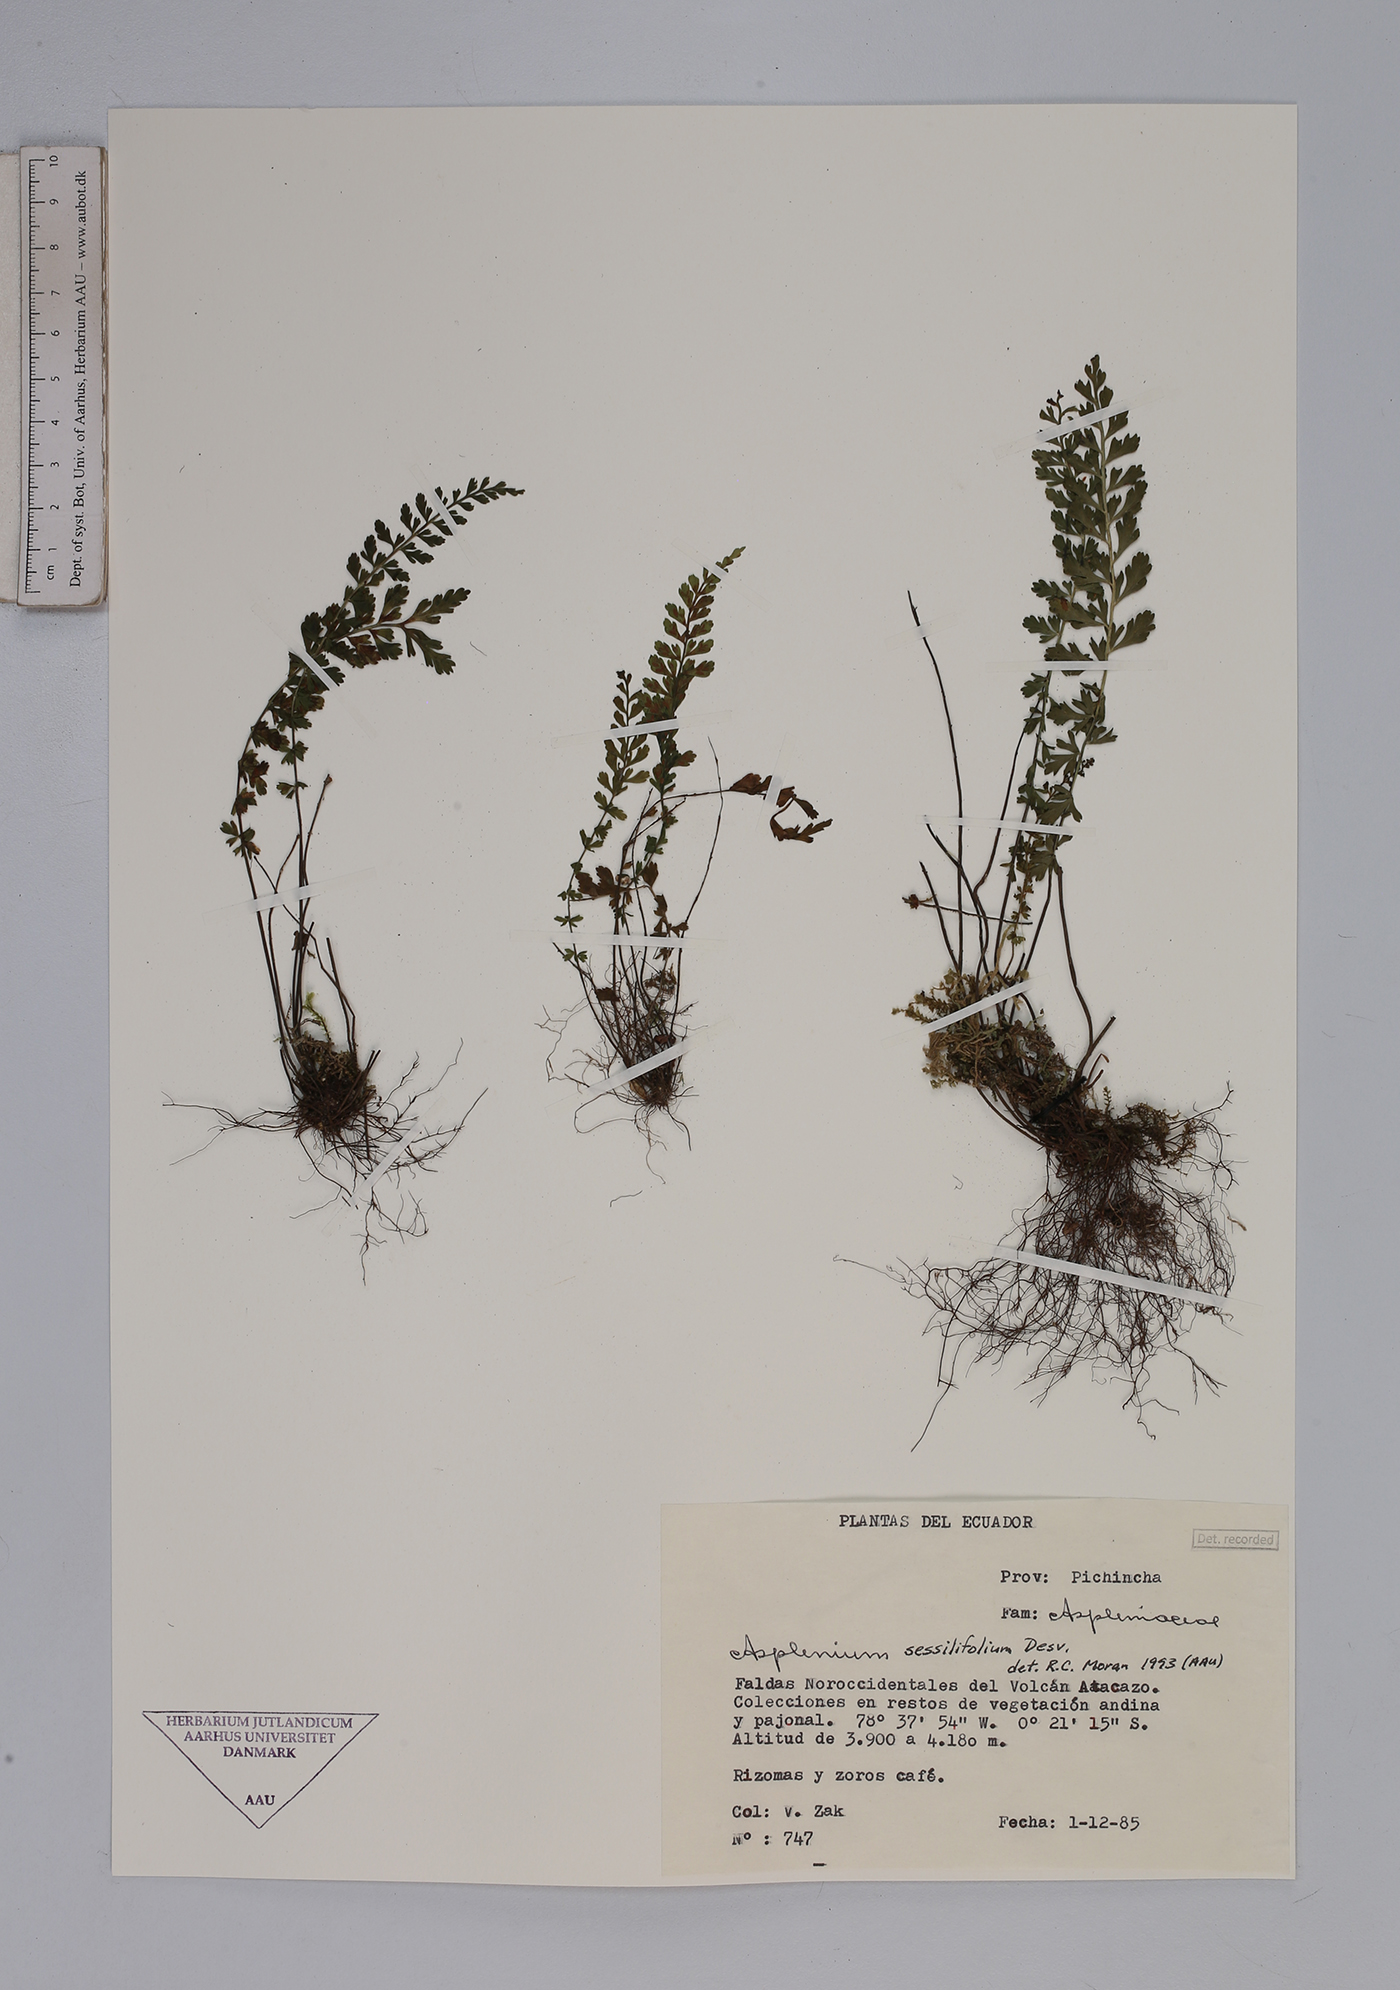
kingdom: Plantae
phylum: Tracheophyta
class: Polypodiopsida
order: Polypodiales
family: Aspleniaceae
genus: Asplenium
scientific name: Asplenium sessilifolium
